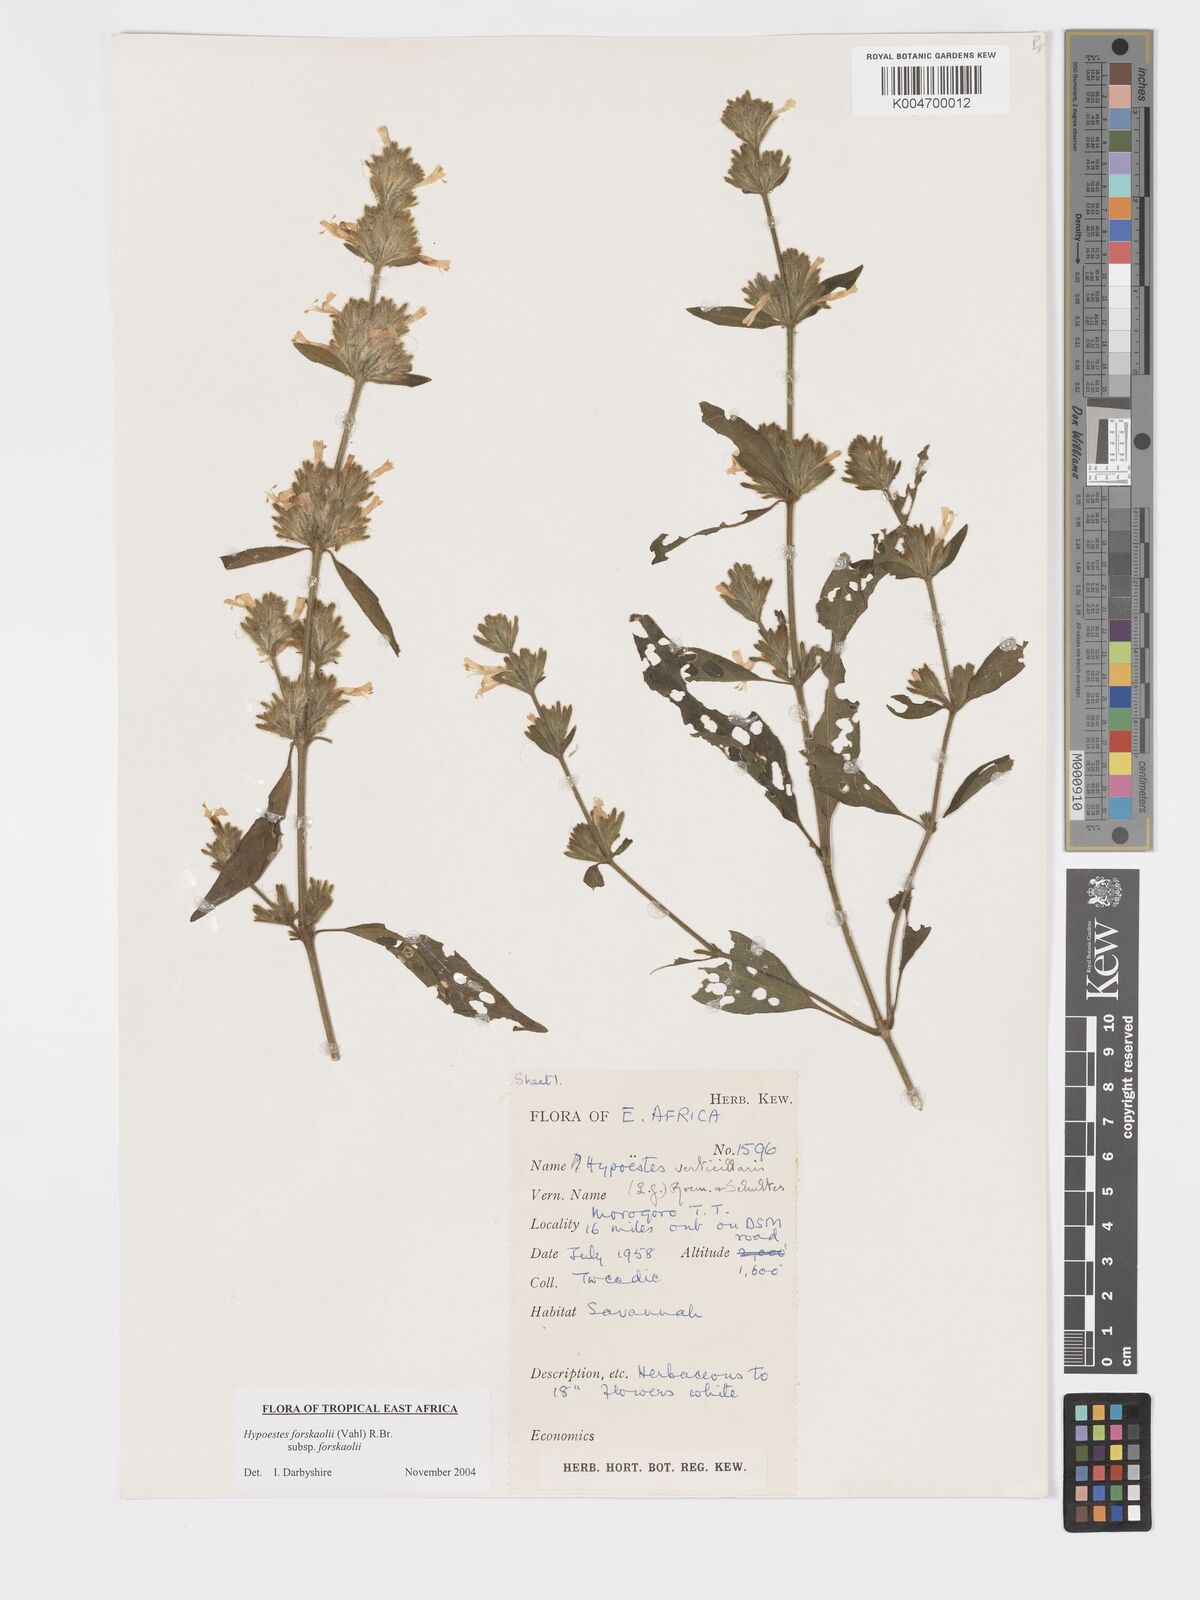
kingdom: Plantae
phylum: Tracheophyta
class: Magnoliopsida
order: Lamiales
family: Acanthaceae
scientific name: Acanthaceae
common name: Acanthaceae
